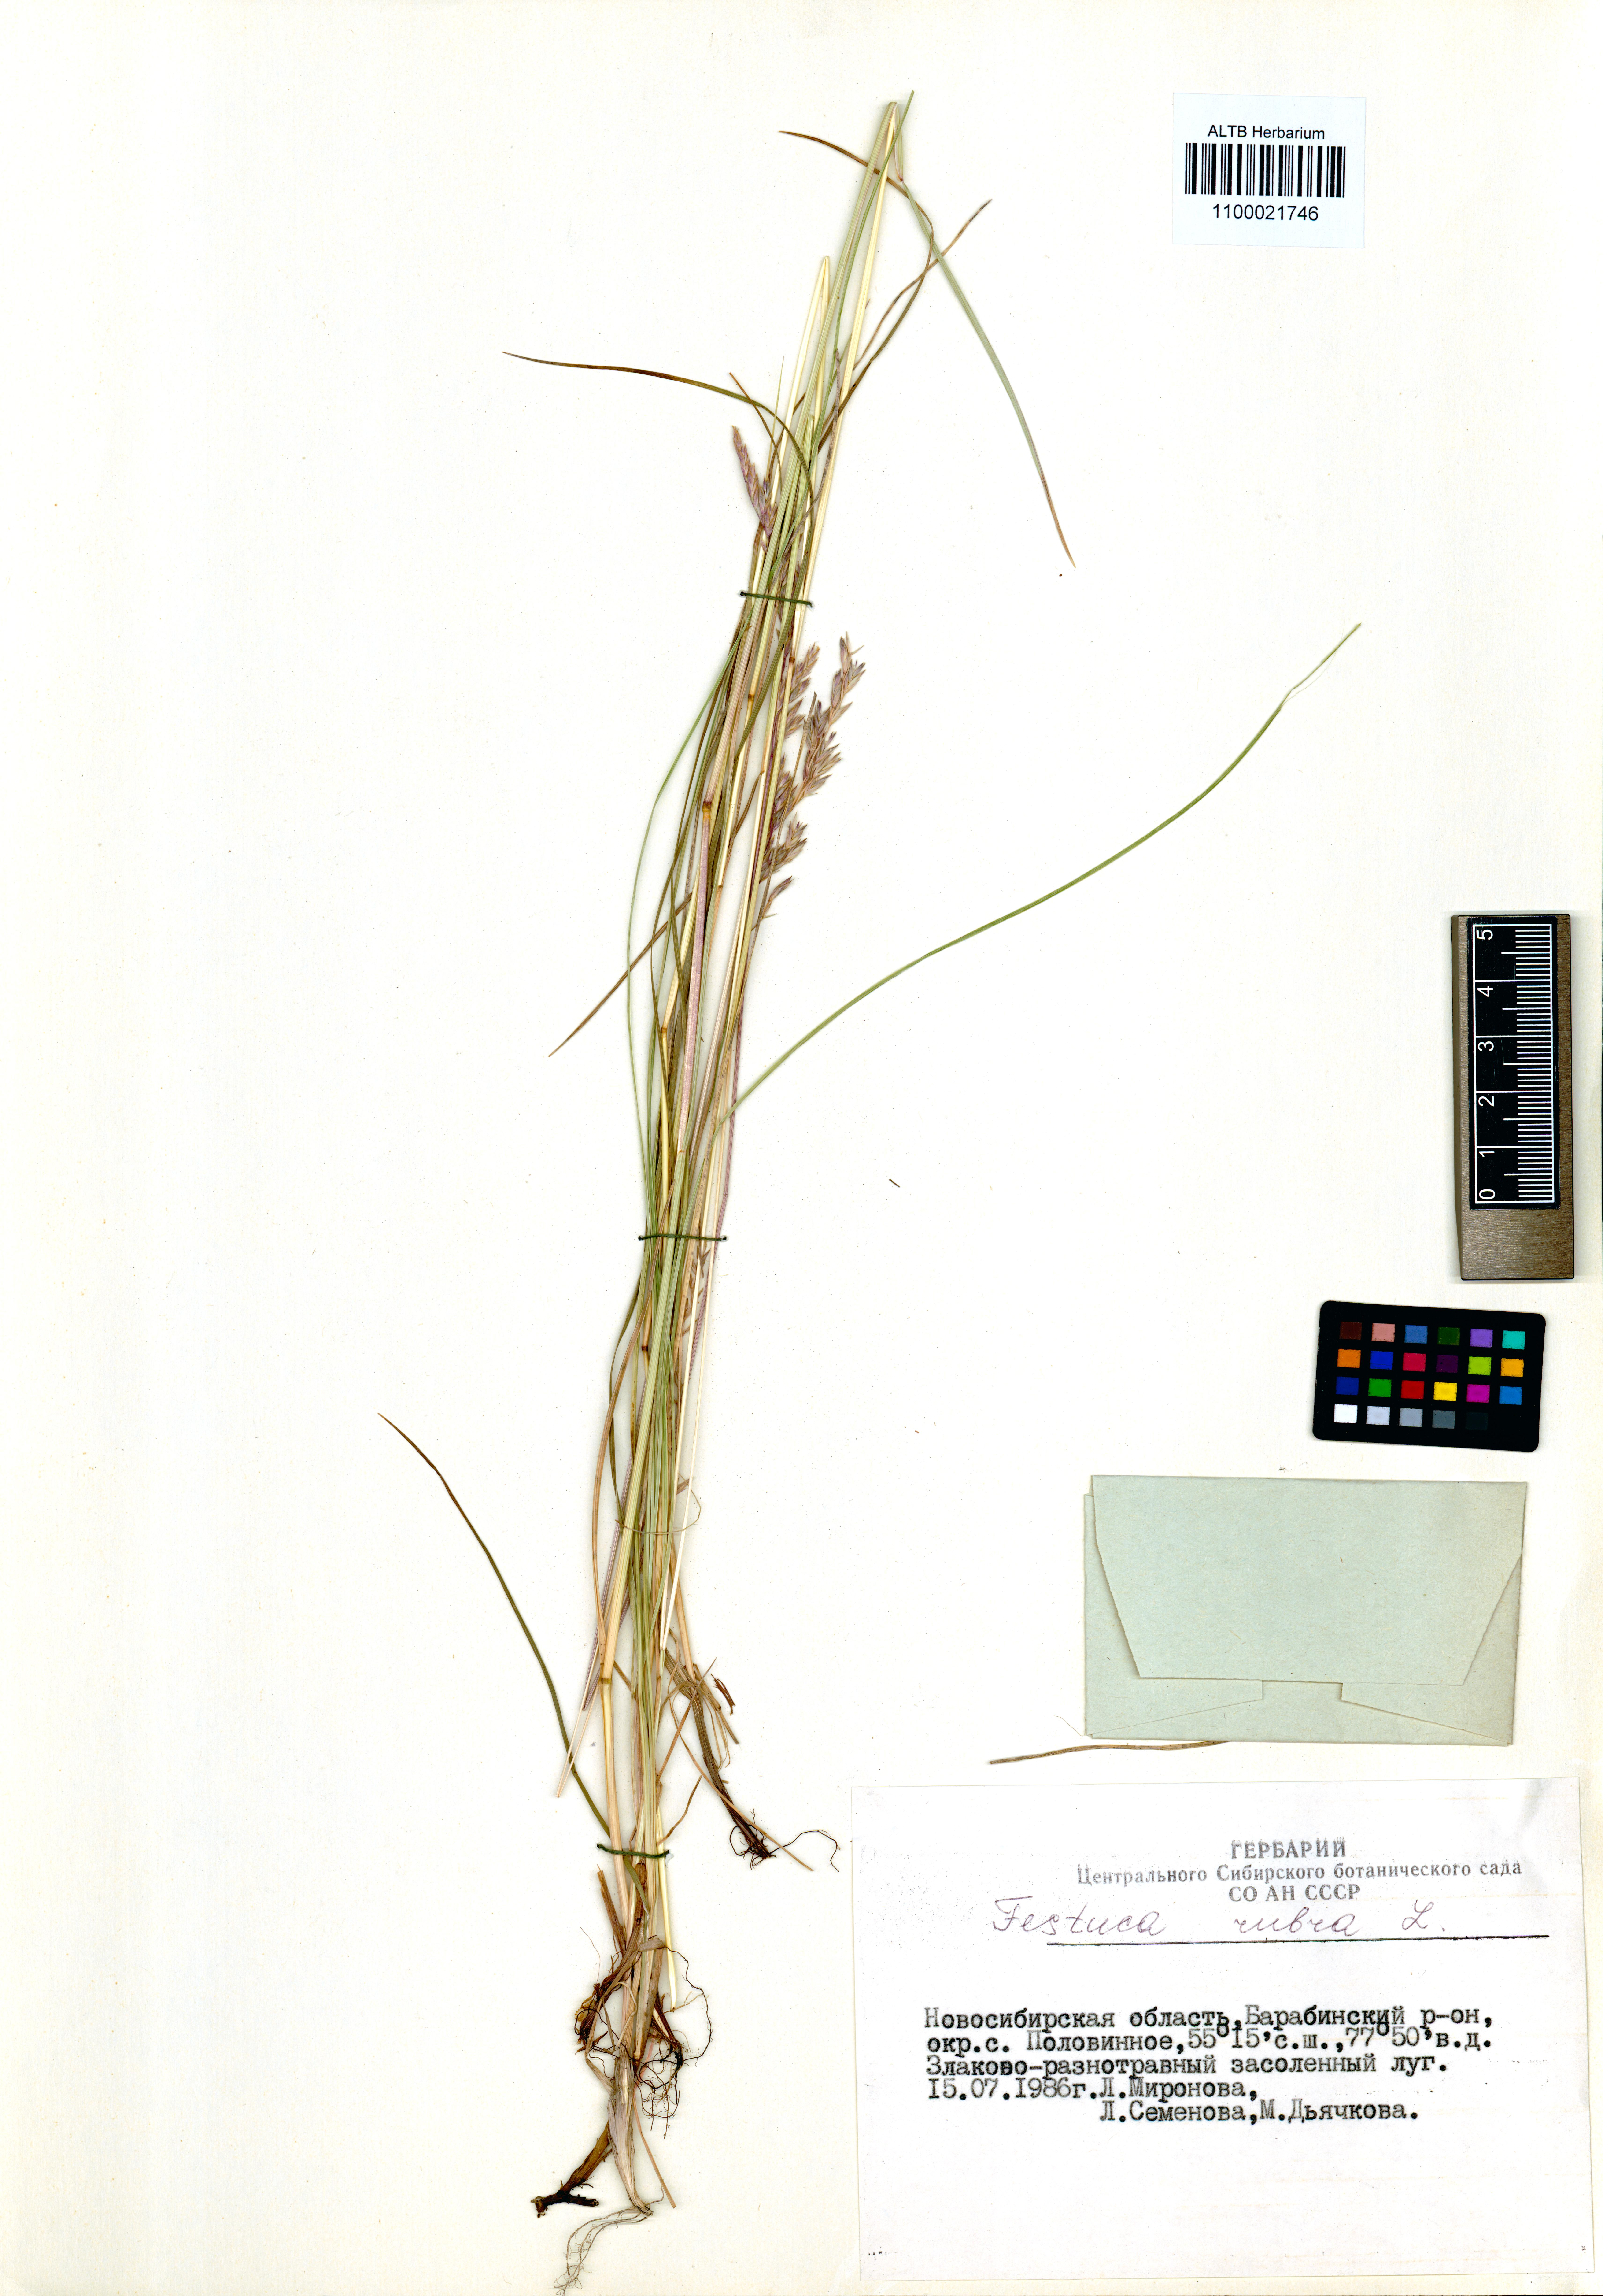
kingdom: Plantae
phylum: Tracheophyta
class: Liliopsida
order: Poales
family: Poaceae
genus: Festuca
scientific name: Festuca rubra
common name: Red fescue
